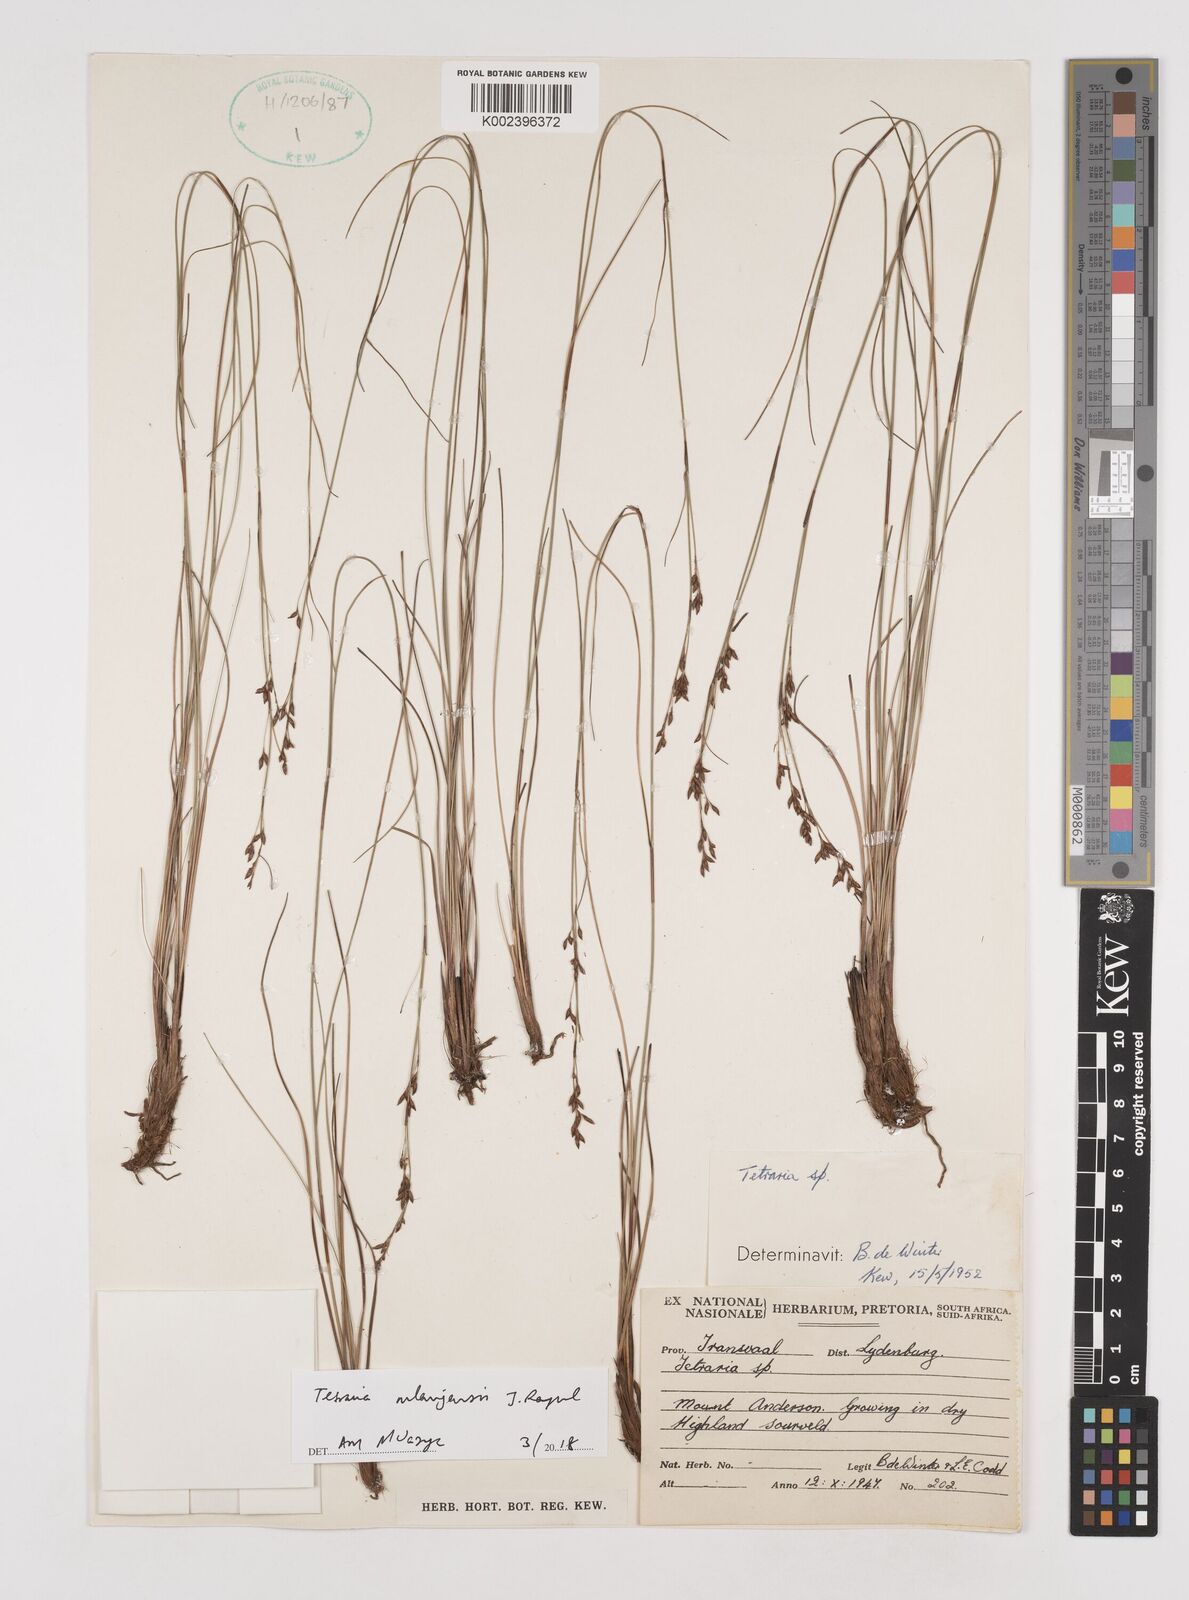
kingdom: Plantae
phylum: Tracheophyta
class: Liliopsida
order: Poales
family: Cyperaceae
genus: Tetraria
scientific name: Tetraria mlanjensis
